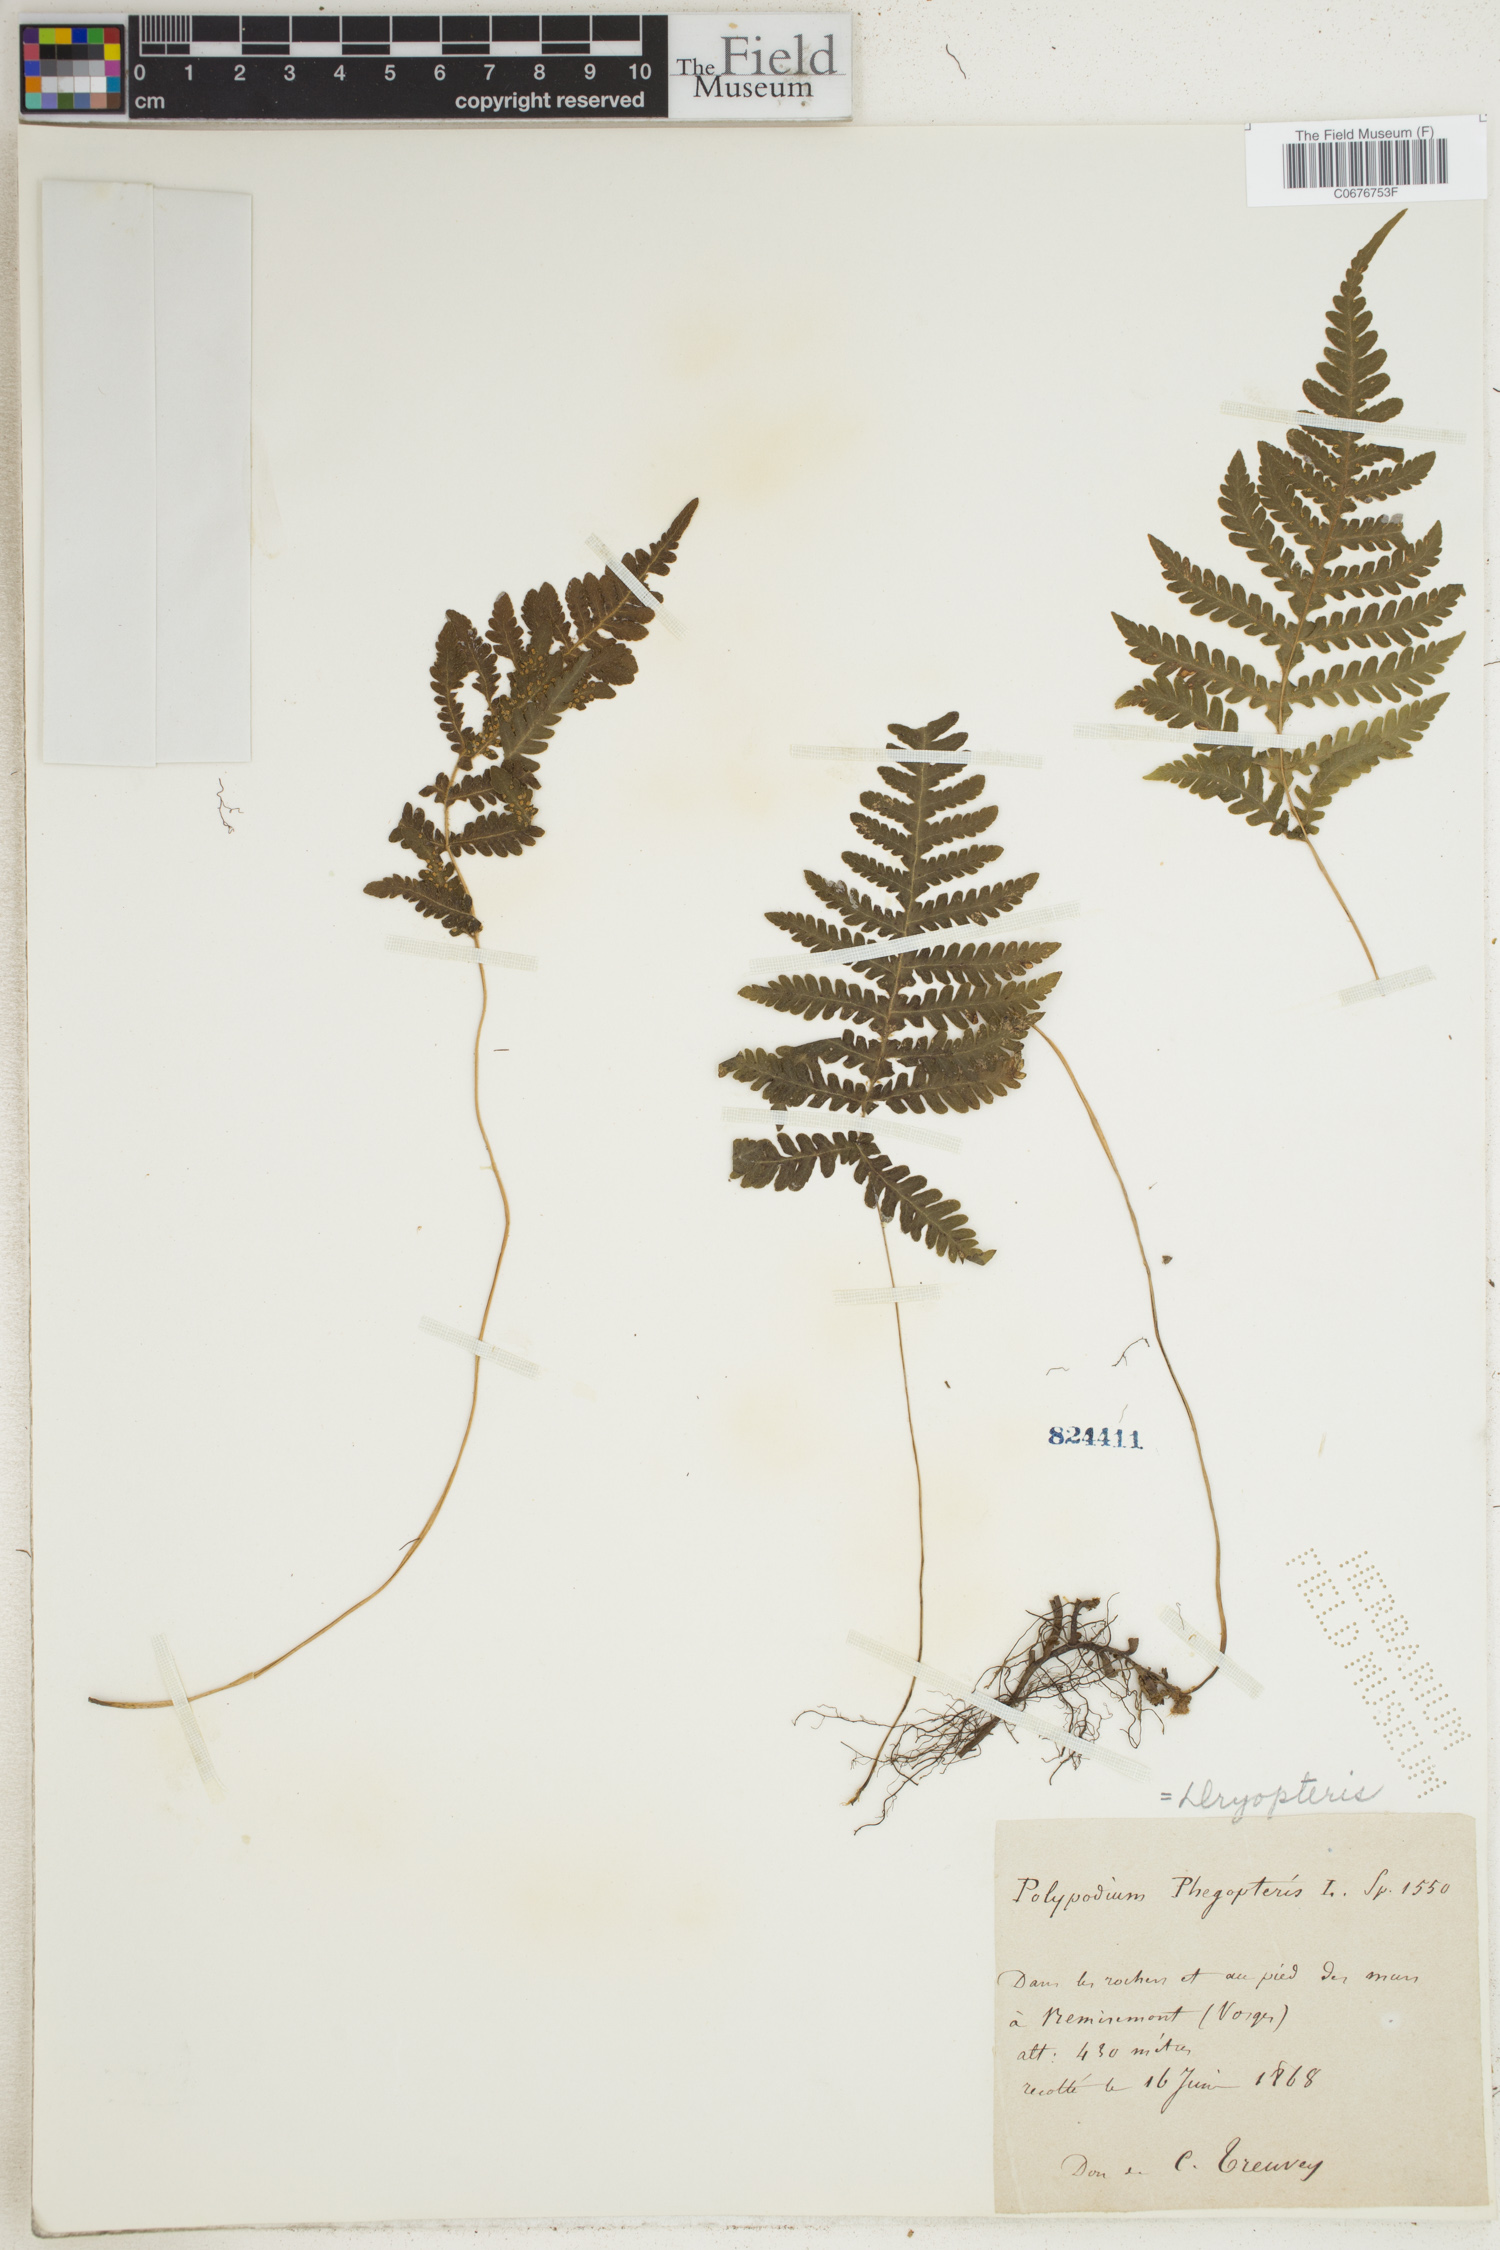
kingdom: Plantae
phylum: Tracheophyta
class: Polypodiopsida
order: Polypodiales
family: Thelypteridaceae
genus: Phegopteris
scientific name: Phegopteris connectilis
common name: Beech fern
